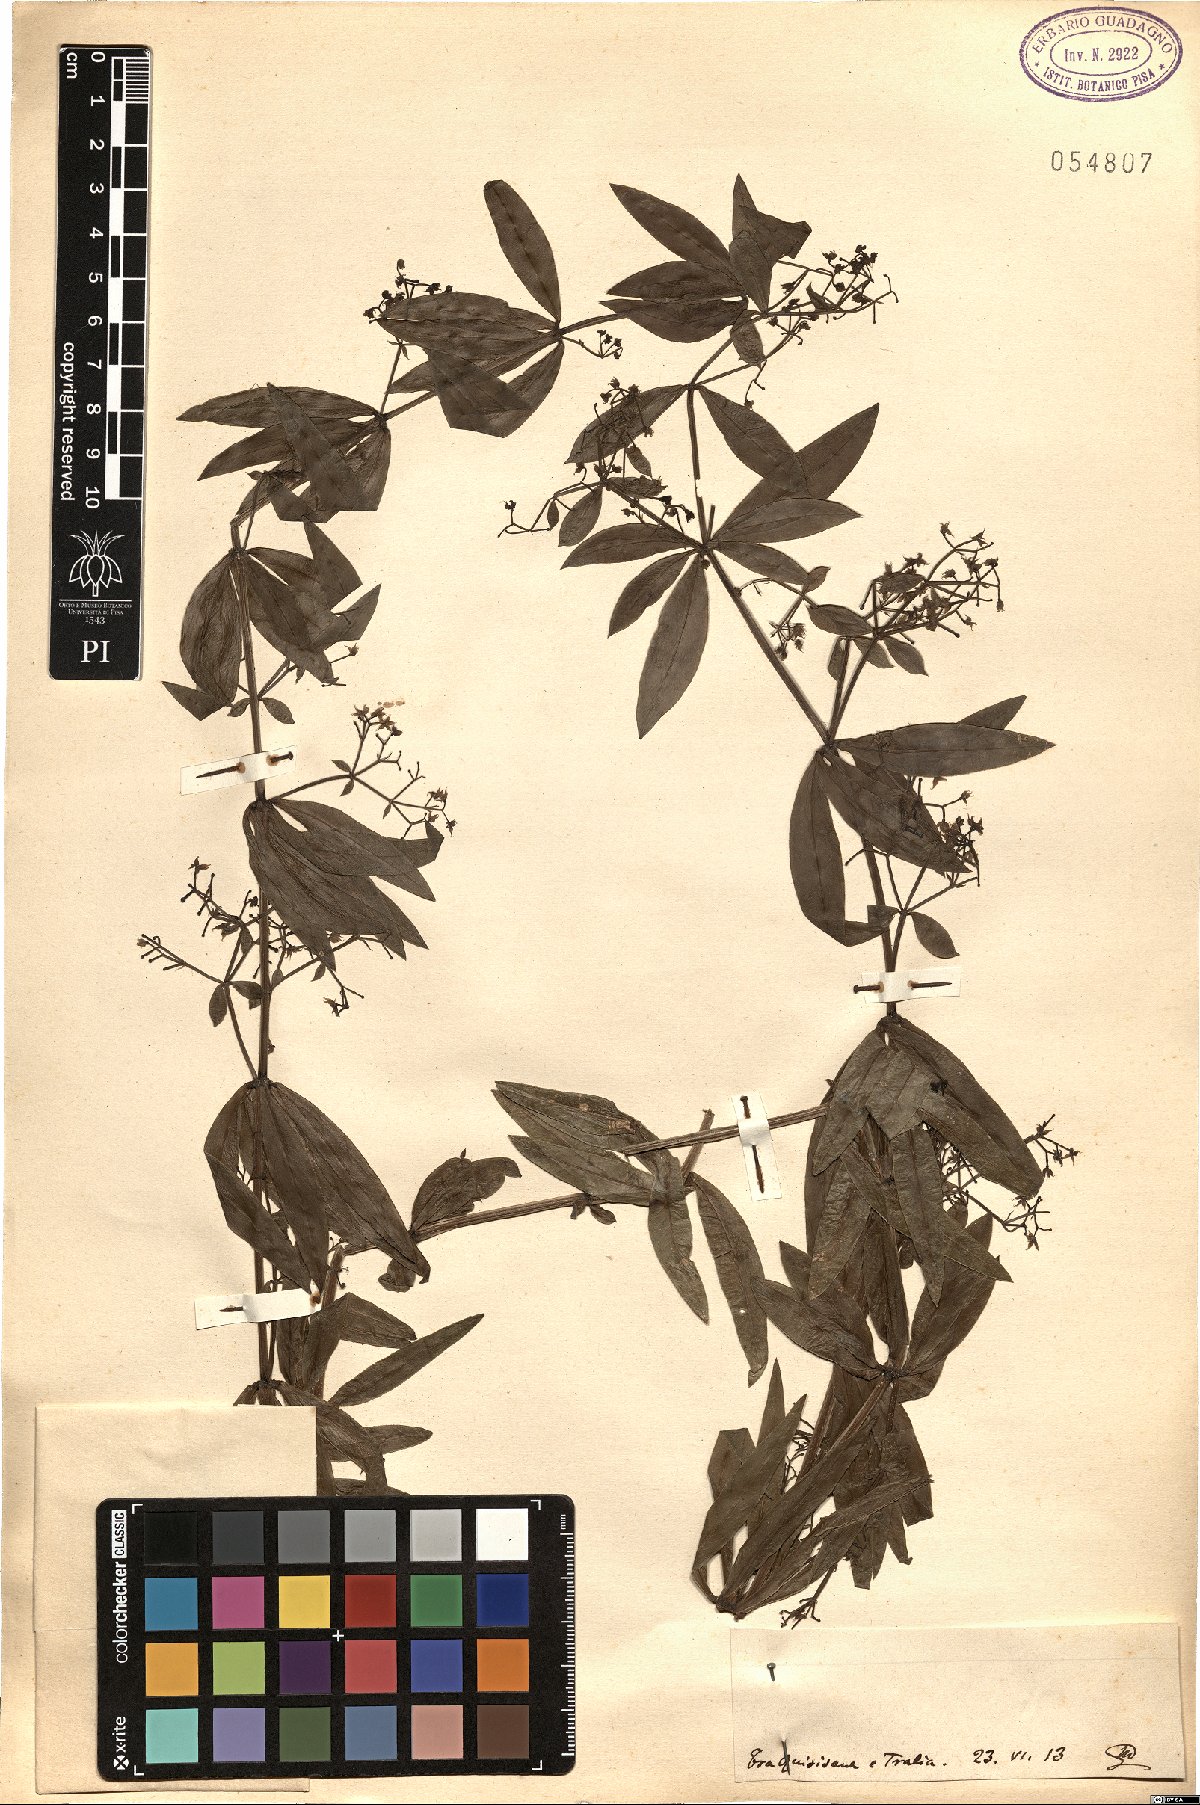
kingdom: Plantae
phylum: Tracheophyta
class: Magnoliopsida
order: Gentianales
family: Rubiaceae
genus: Rubia
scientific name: Rubia
